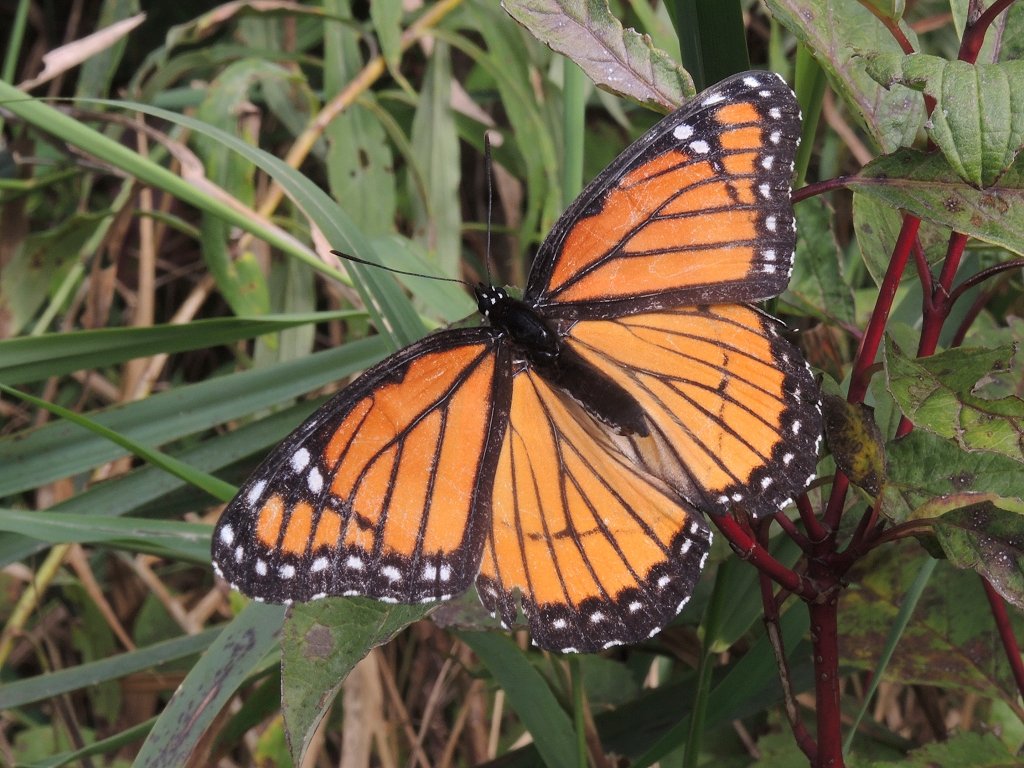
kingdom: Animalia
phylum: Arthropoda
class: Insecta
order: Lepidoptera
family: Nymphalidae
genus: Limenitis
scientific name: Limenitis archippus
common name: Viceroy
